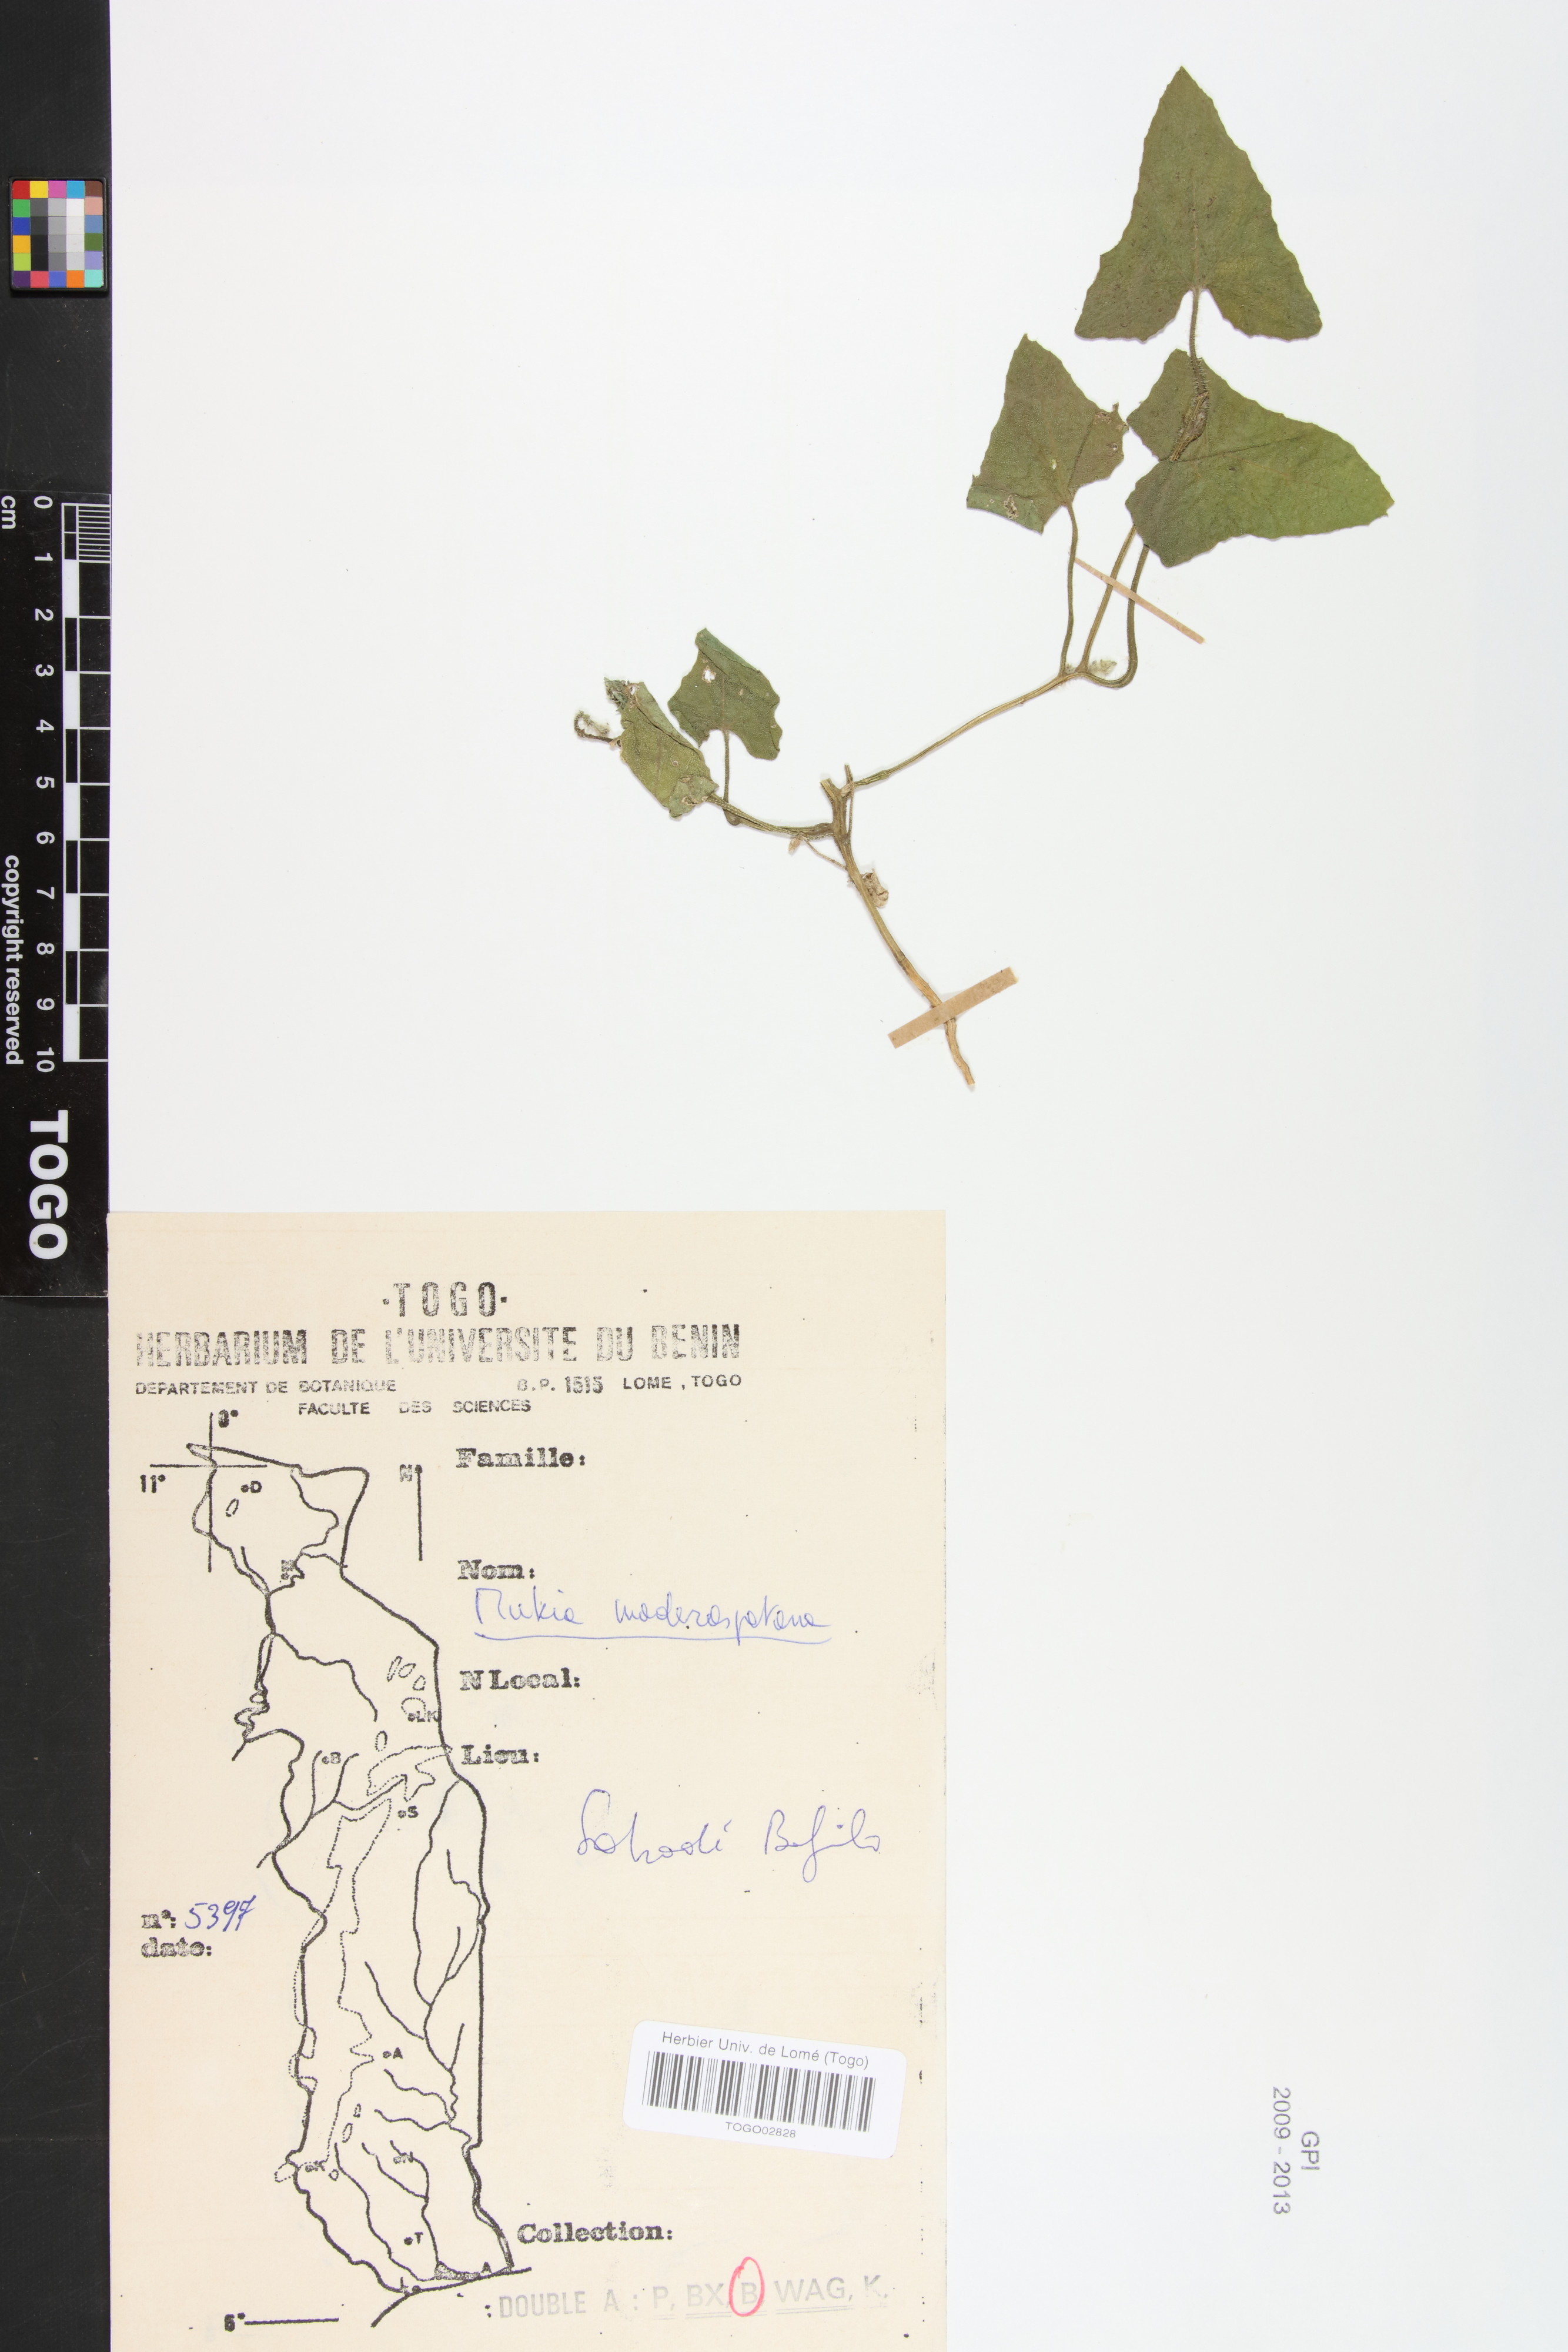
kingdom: Plantae
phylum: Tracheophyta
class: Magnoliopsida
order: Cucurbitales
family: Cucurbitaceae
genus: Cucumis
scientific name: Cucumis maderaspatanus
